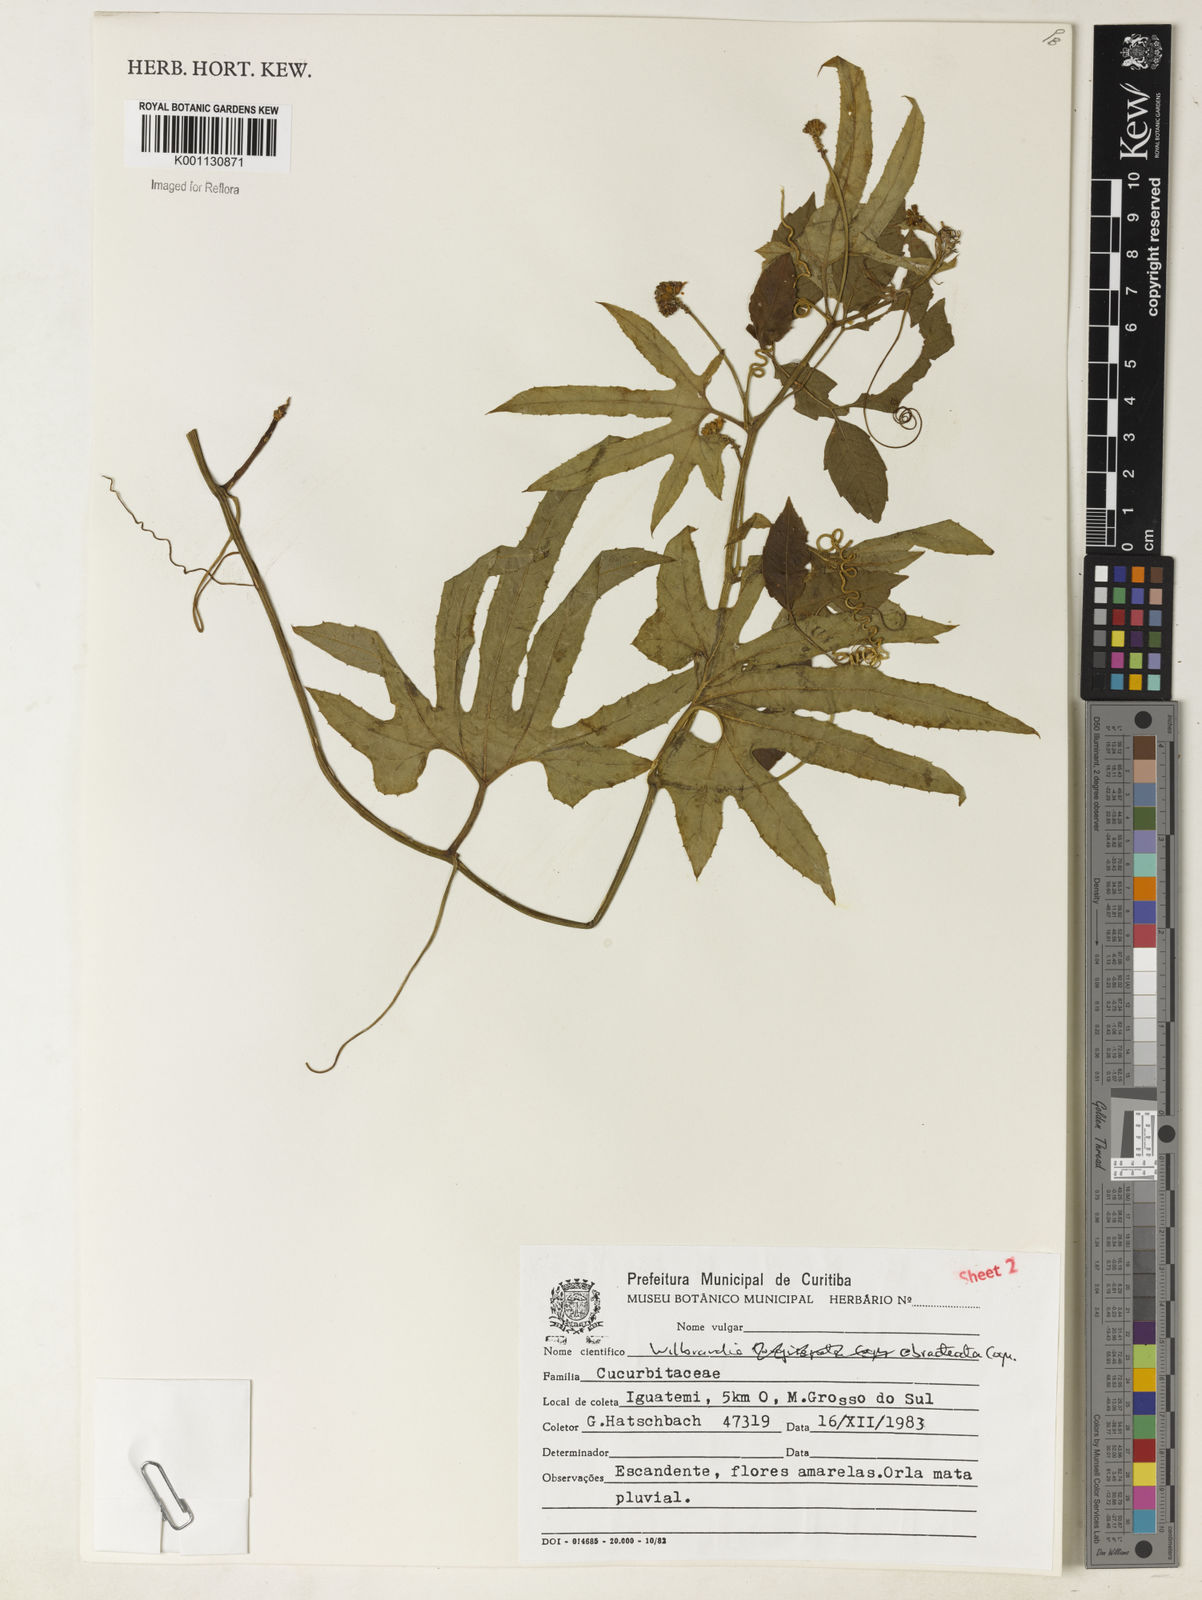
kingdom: Plantae
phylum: Tracheophyta
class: Magnoliopsida
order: Cucurbitales
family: Cucurbitaceae
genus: Wilbrandia
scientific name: Wilbrandia ebracteata
